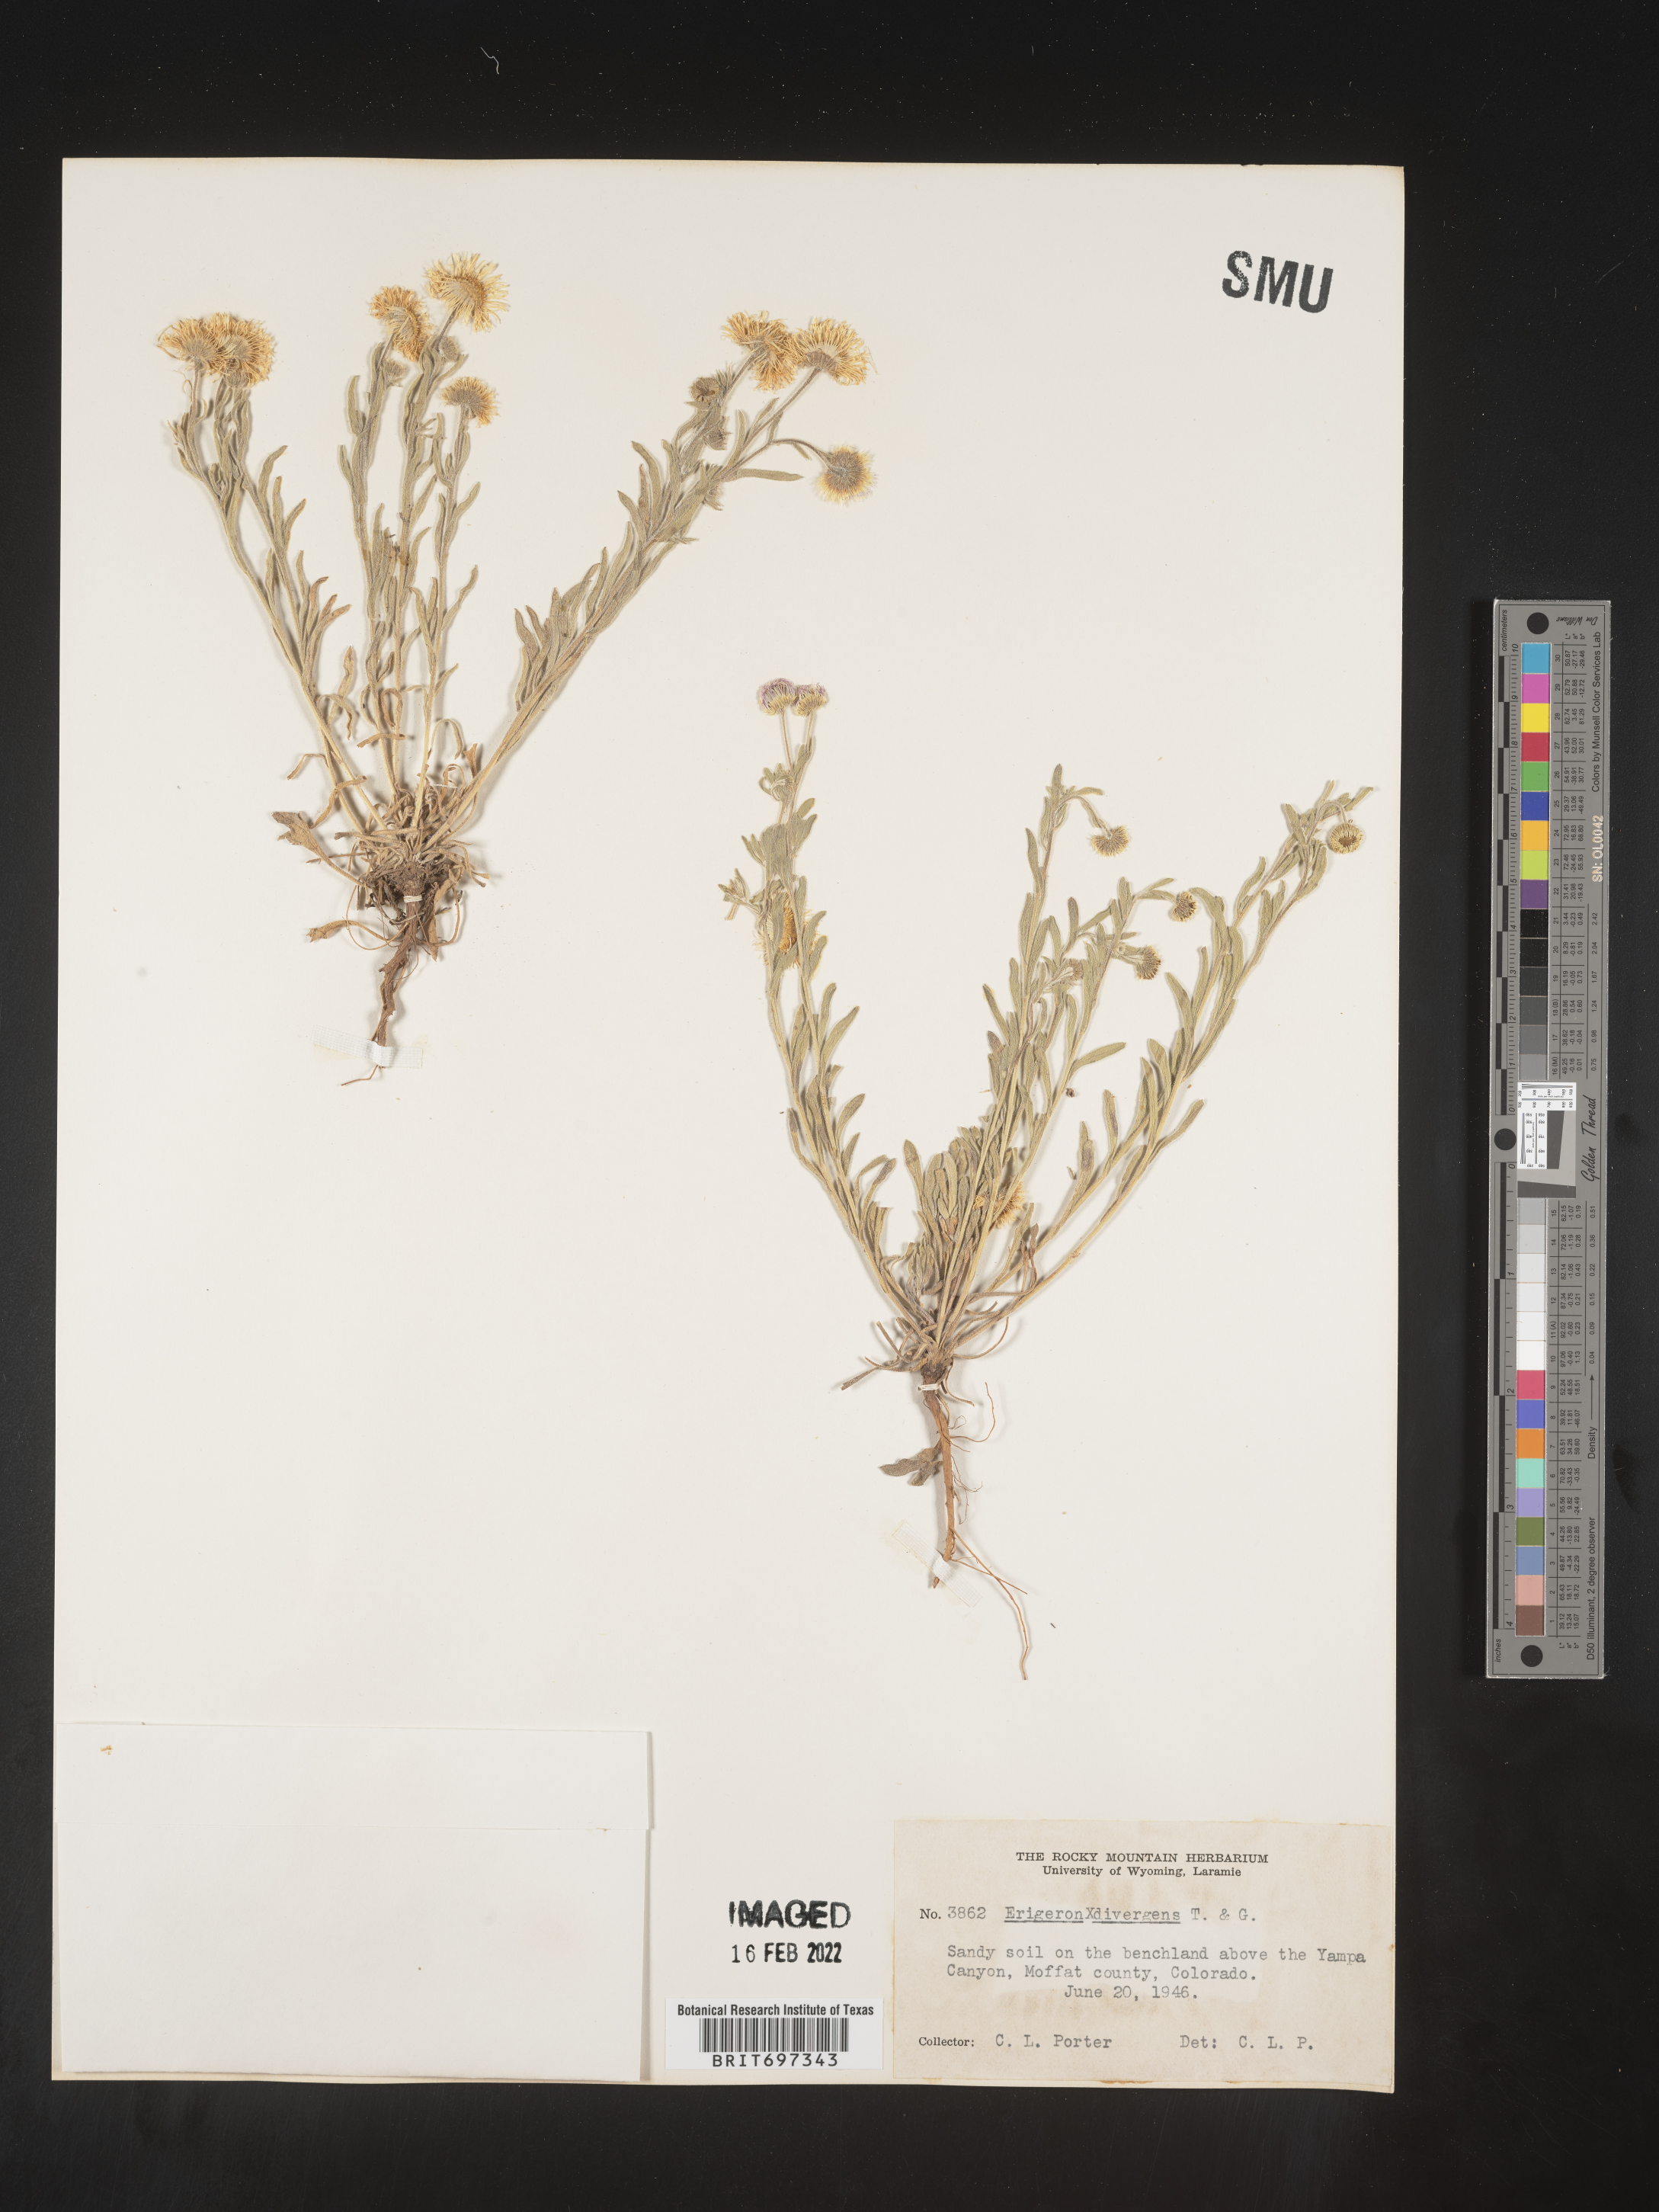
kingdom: Plantae
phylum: Tracheophyta
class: Magnoliopsida
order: Asterales
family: Asteraceae
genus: Erigeron
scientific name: Erigeron divergens
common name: Diffuse fleabane
